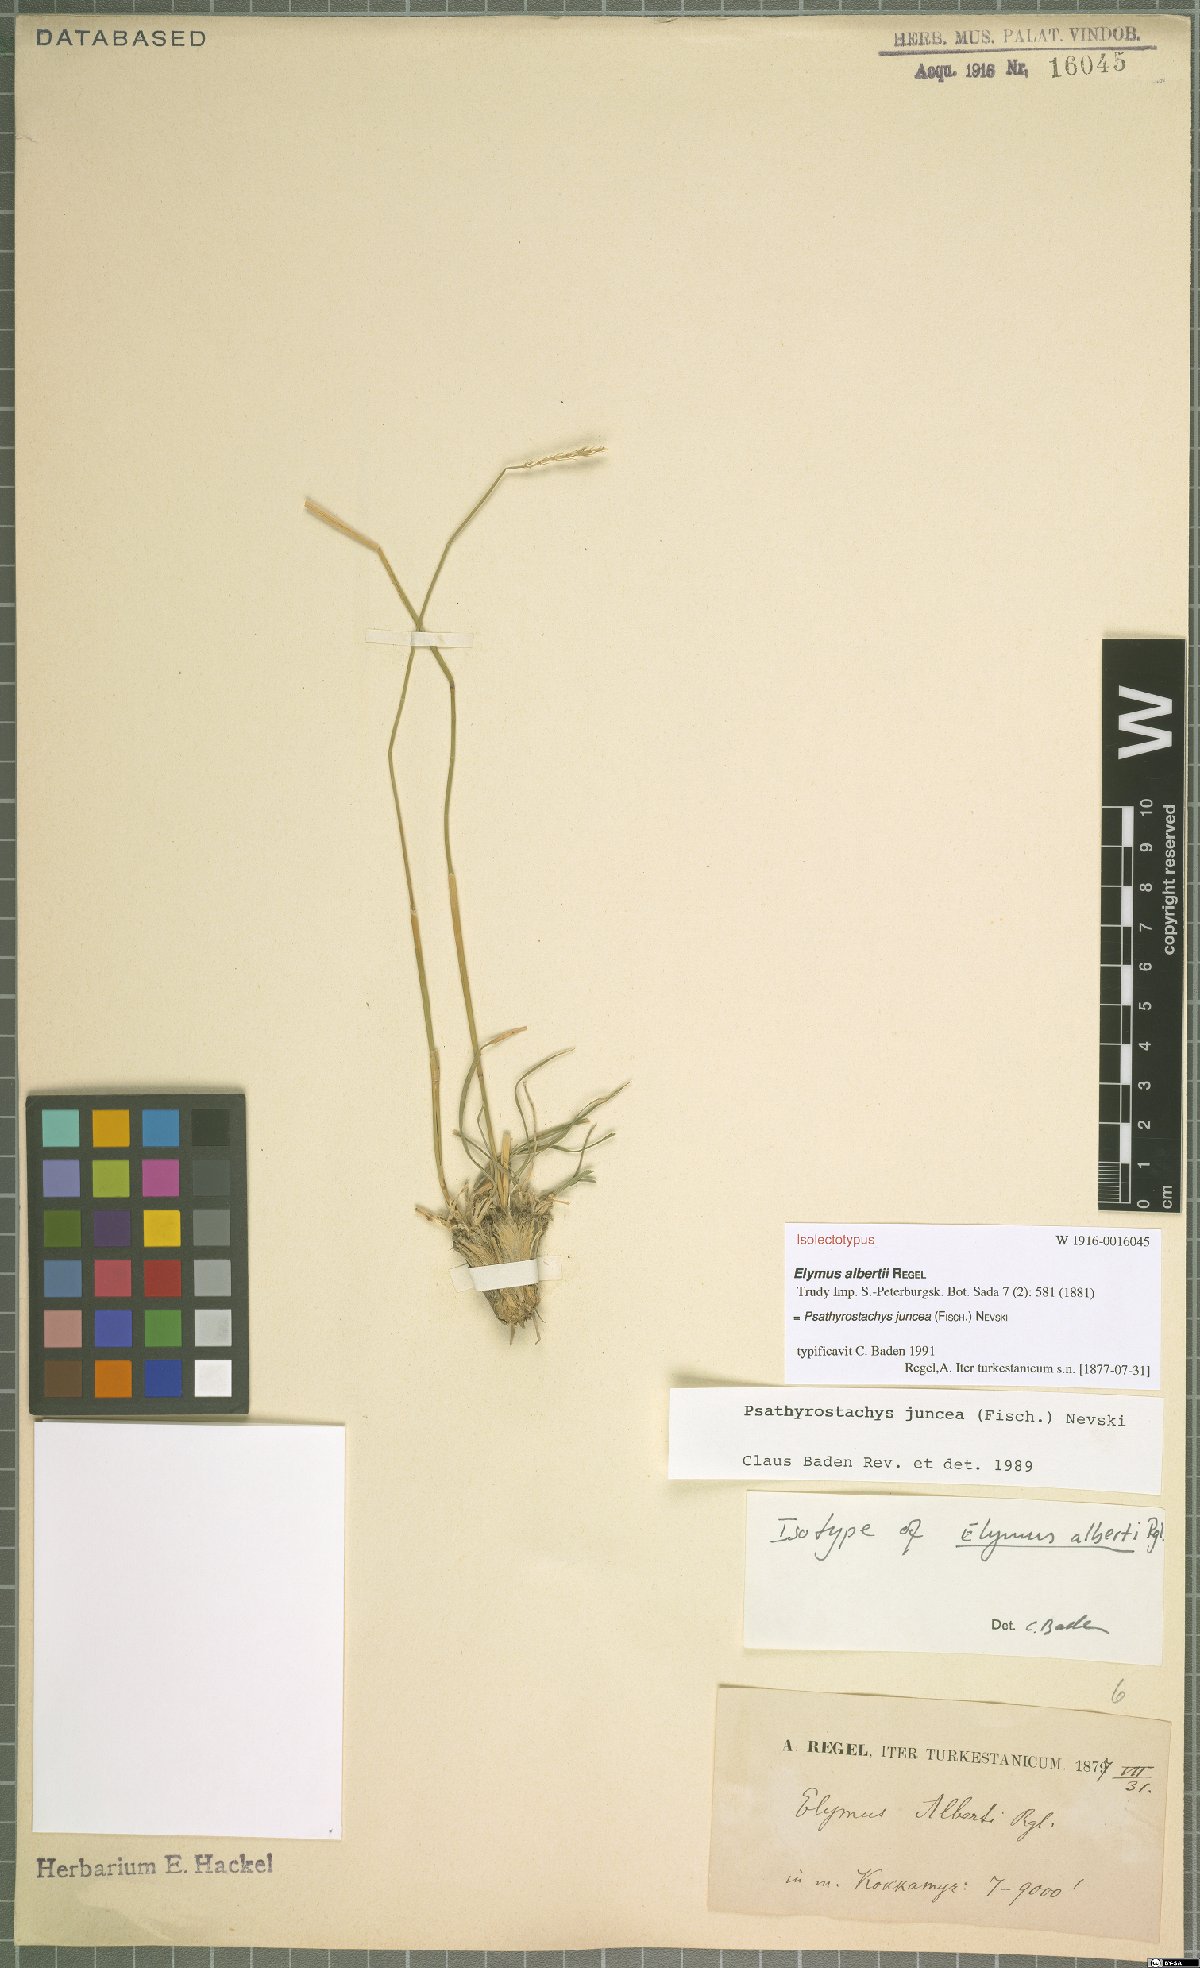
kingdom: Plantae
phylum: Tracheophyta
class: Liliopsida
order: Poales
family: Poaceae
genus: Psathyrostachys
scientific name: Psathyrostachys juncea
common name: Russian wildrye
